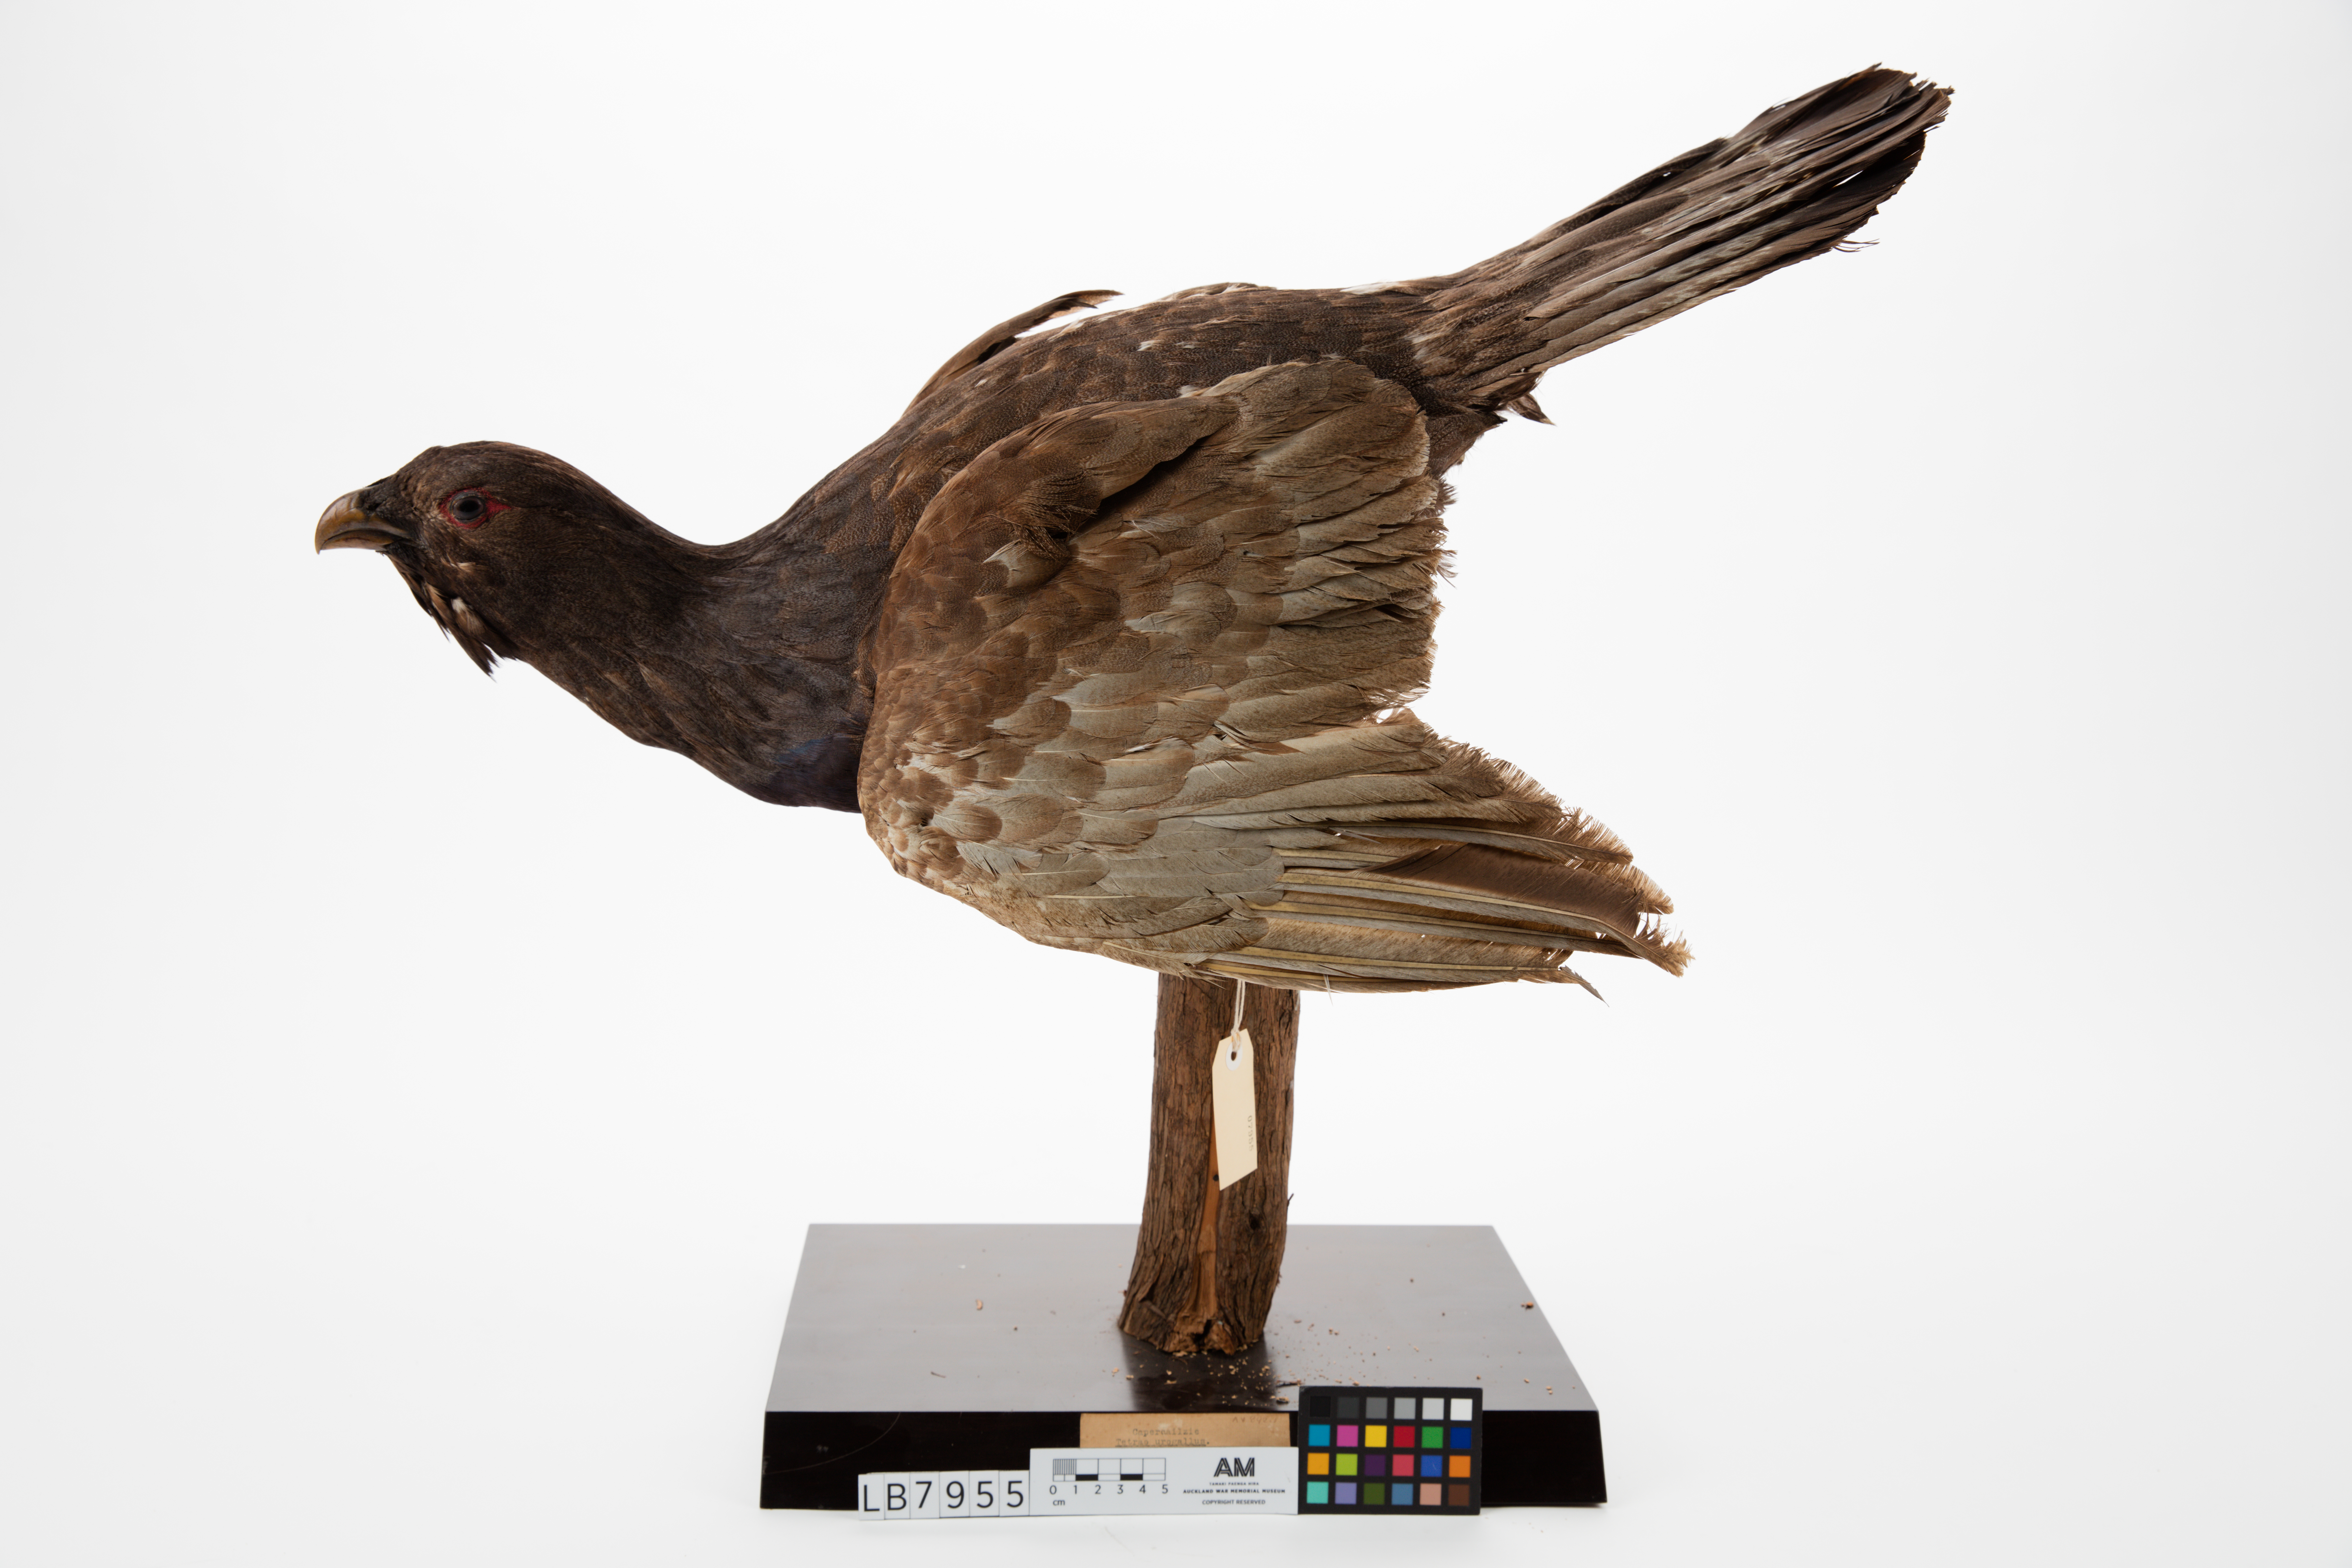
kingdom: Animalia
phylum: Chordata
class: Aves
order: Galliformes
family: Phasianidae
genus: Tetrao
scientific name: Tetrao urogallus
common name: Western capercaillie
